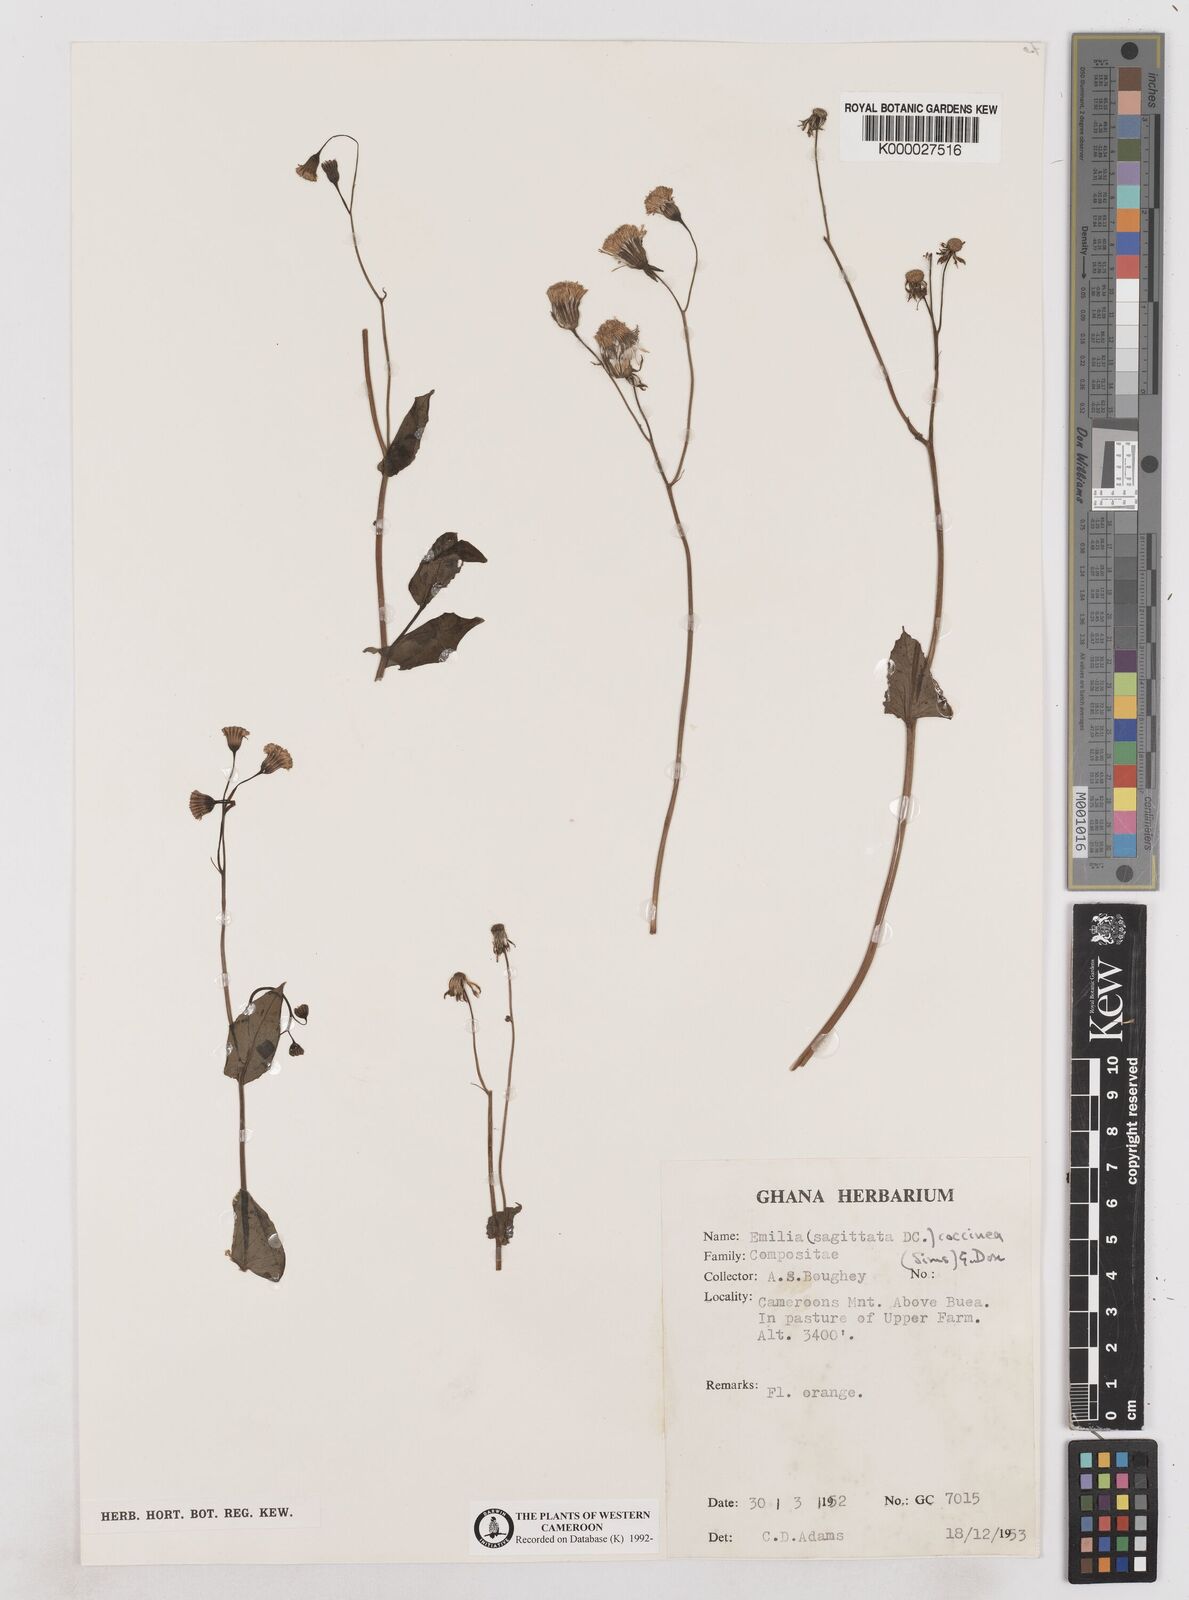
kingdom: Plantae
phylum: Tracheophyta
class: Magnoliopsida
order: Asterales
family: Asteraceae
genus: Emilia
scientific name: Emilia lisowskiana
